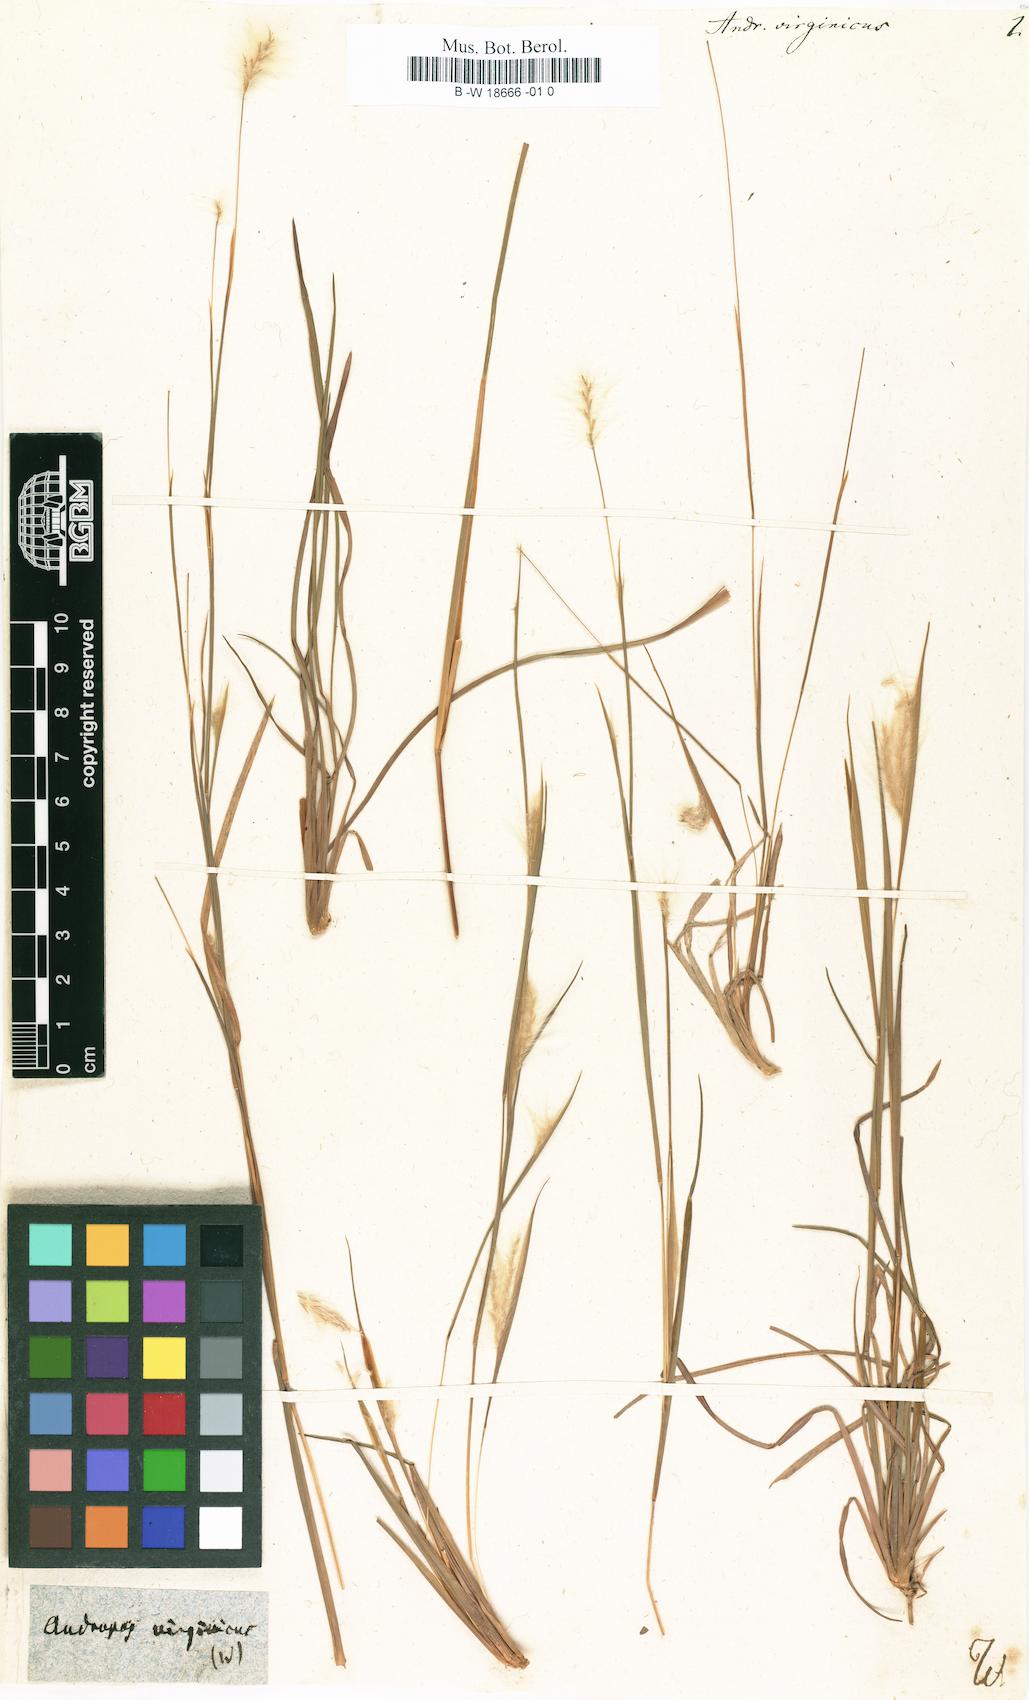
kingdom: Plantae
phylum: Tracheophyta
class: Liliopsida
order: Poales
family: Poaceae
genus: Andropogon
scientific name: Andropogon virginicus
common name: Broomsedge bluestem
